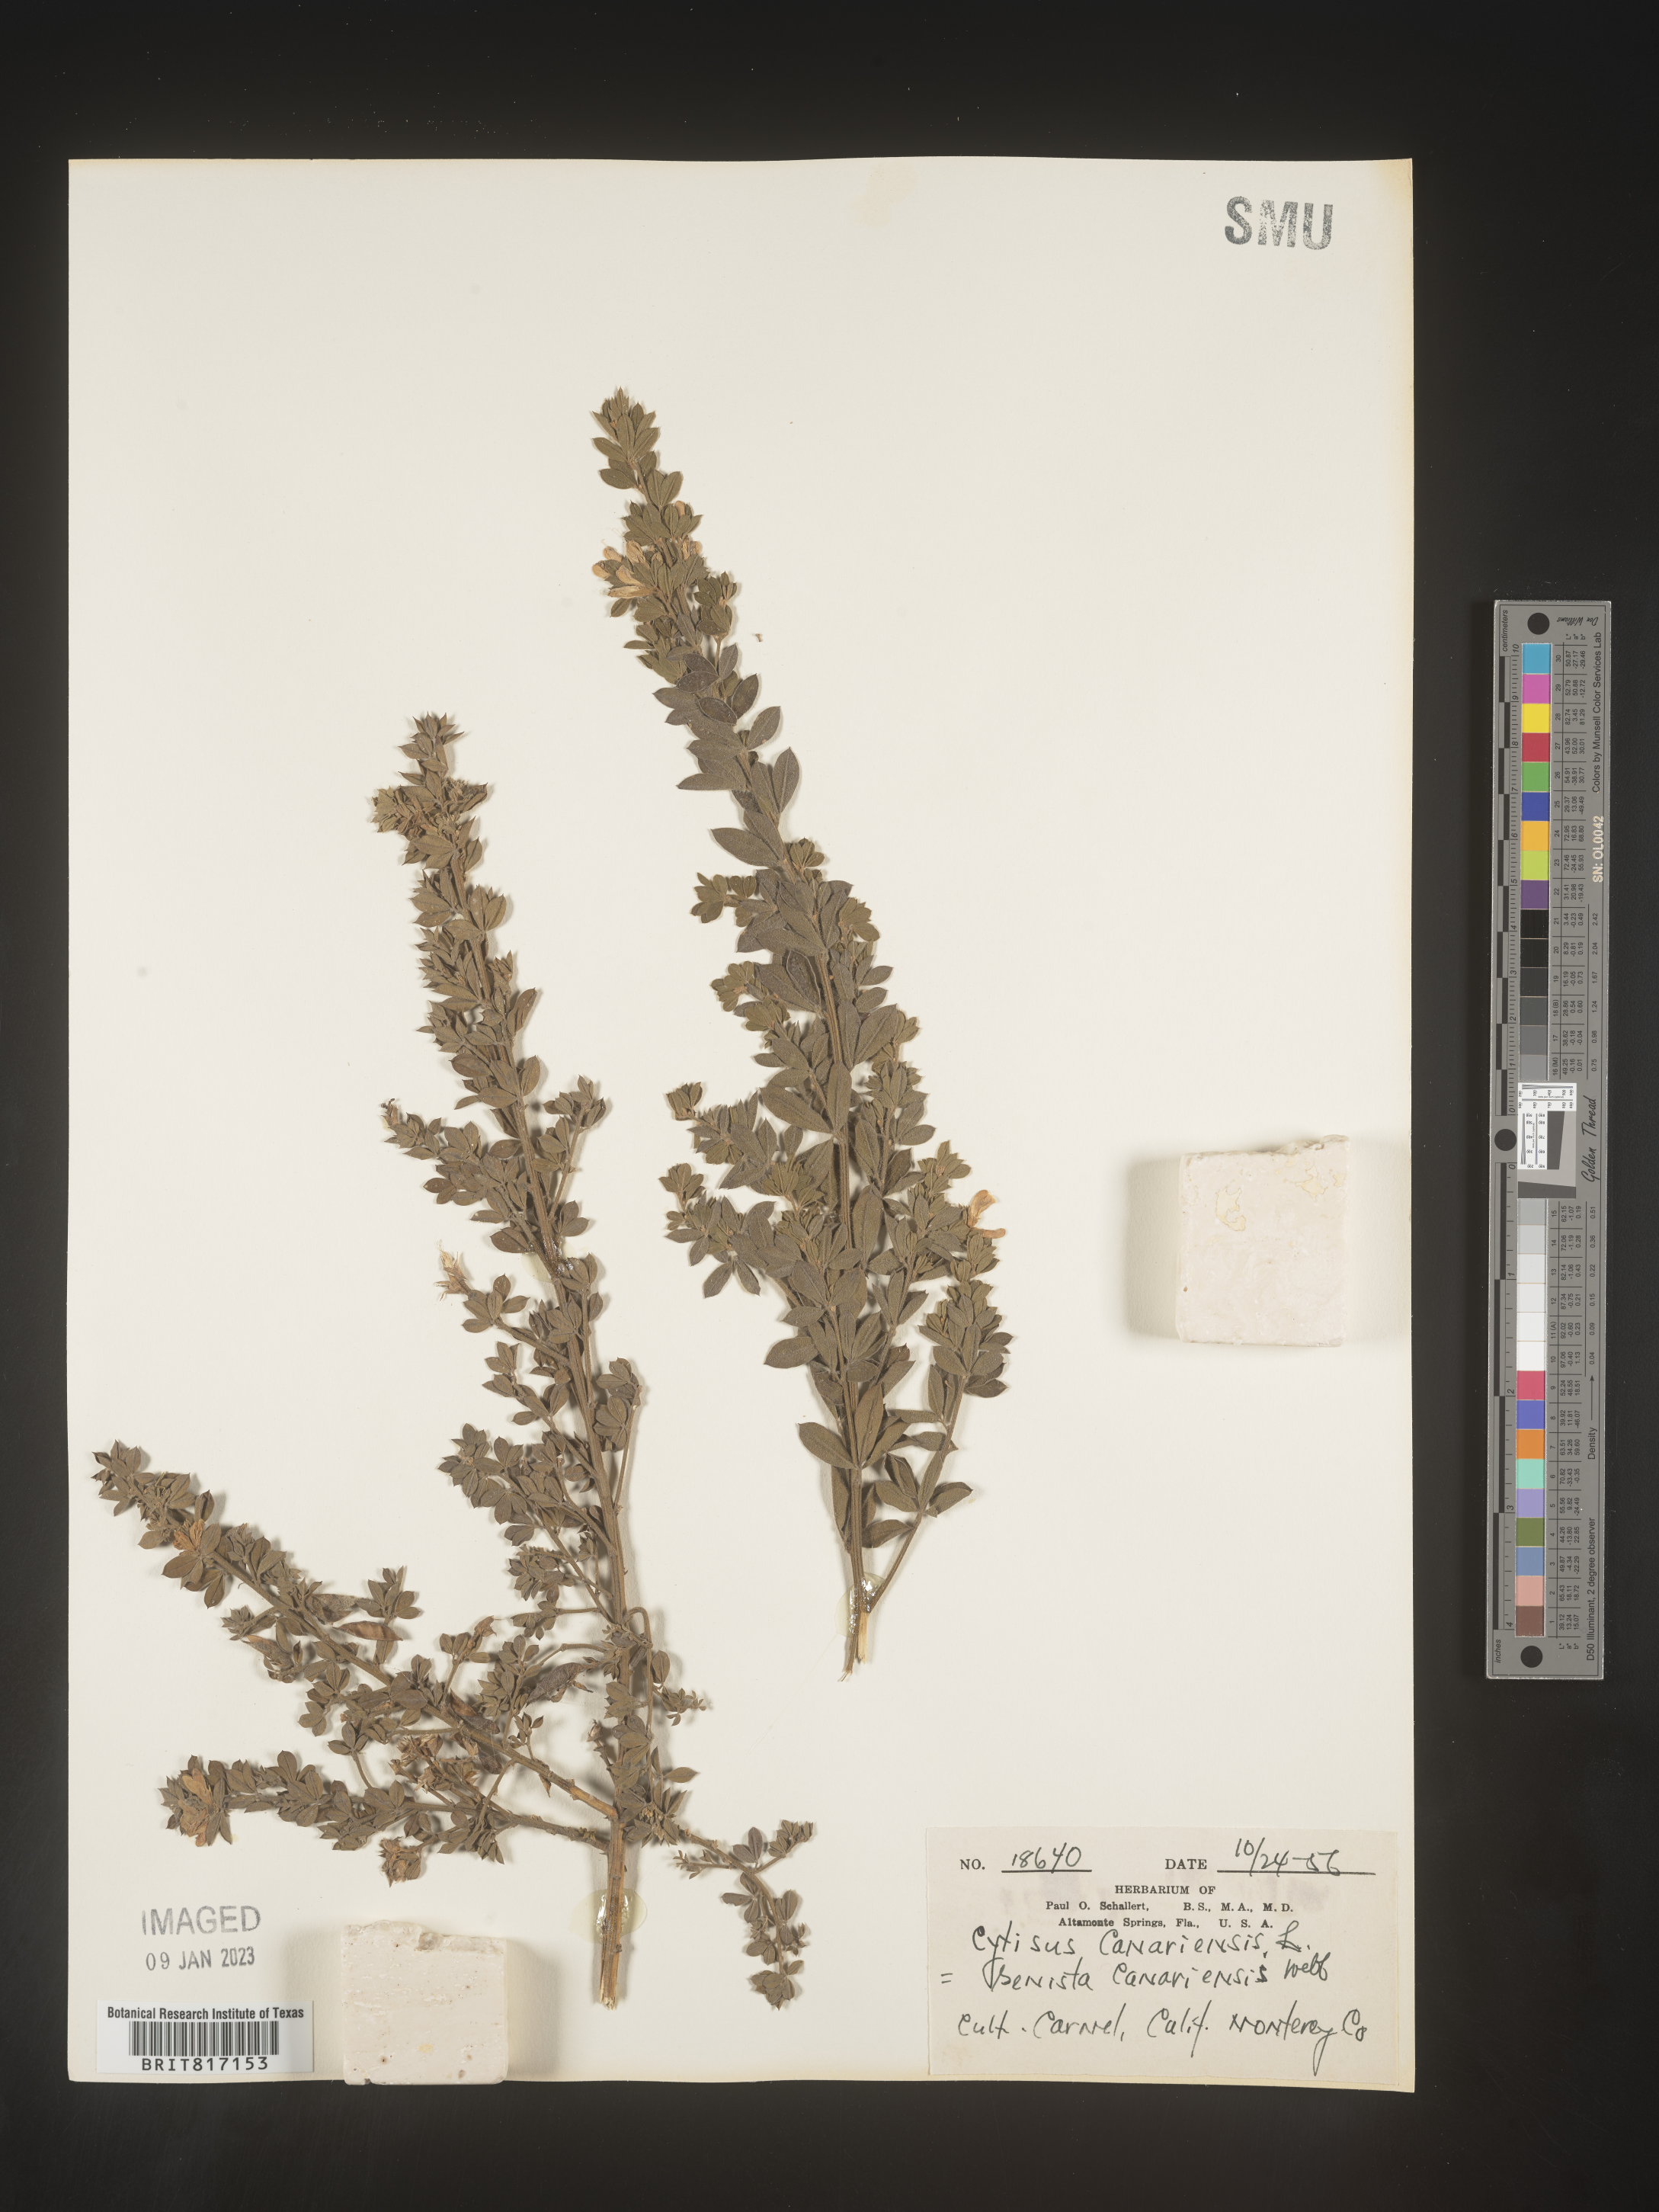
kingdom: Plantae
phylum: Tracheophyta
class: Magnoliopsida
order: Fabales
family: Fabaceae
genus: Cytisus
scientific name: Cytisus
